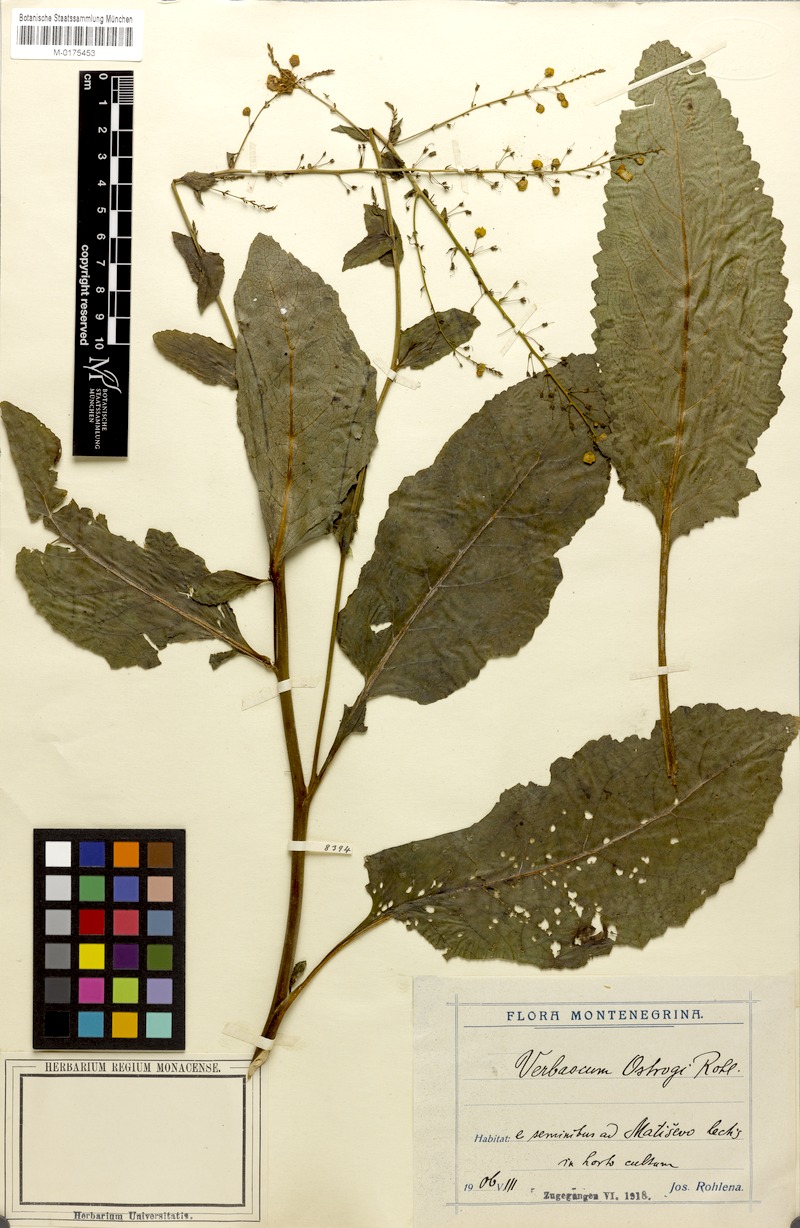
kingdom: Plantae
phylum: Tracheophyta
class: Magnoliopsida
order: Lamiales
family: Scrophulariaceae
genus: Verbascum
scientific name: Verbascum glabratum
